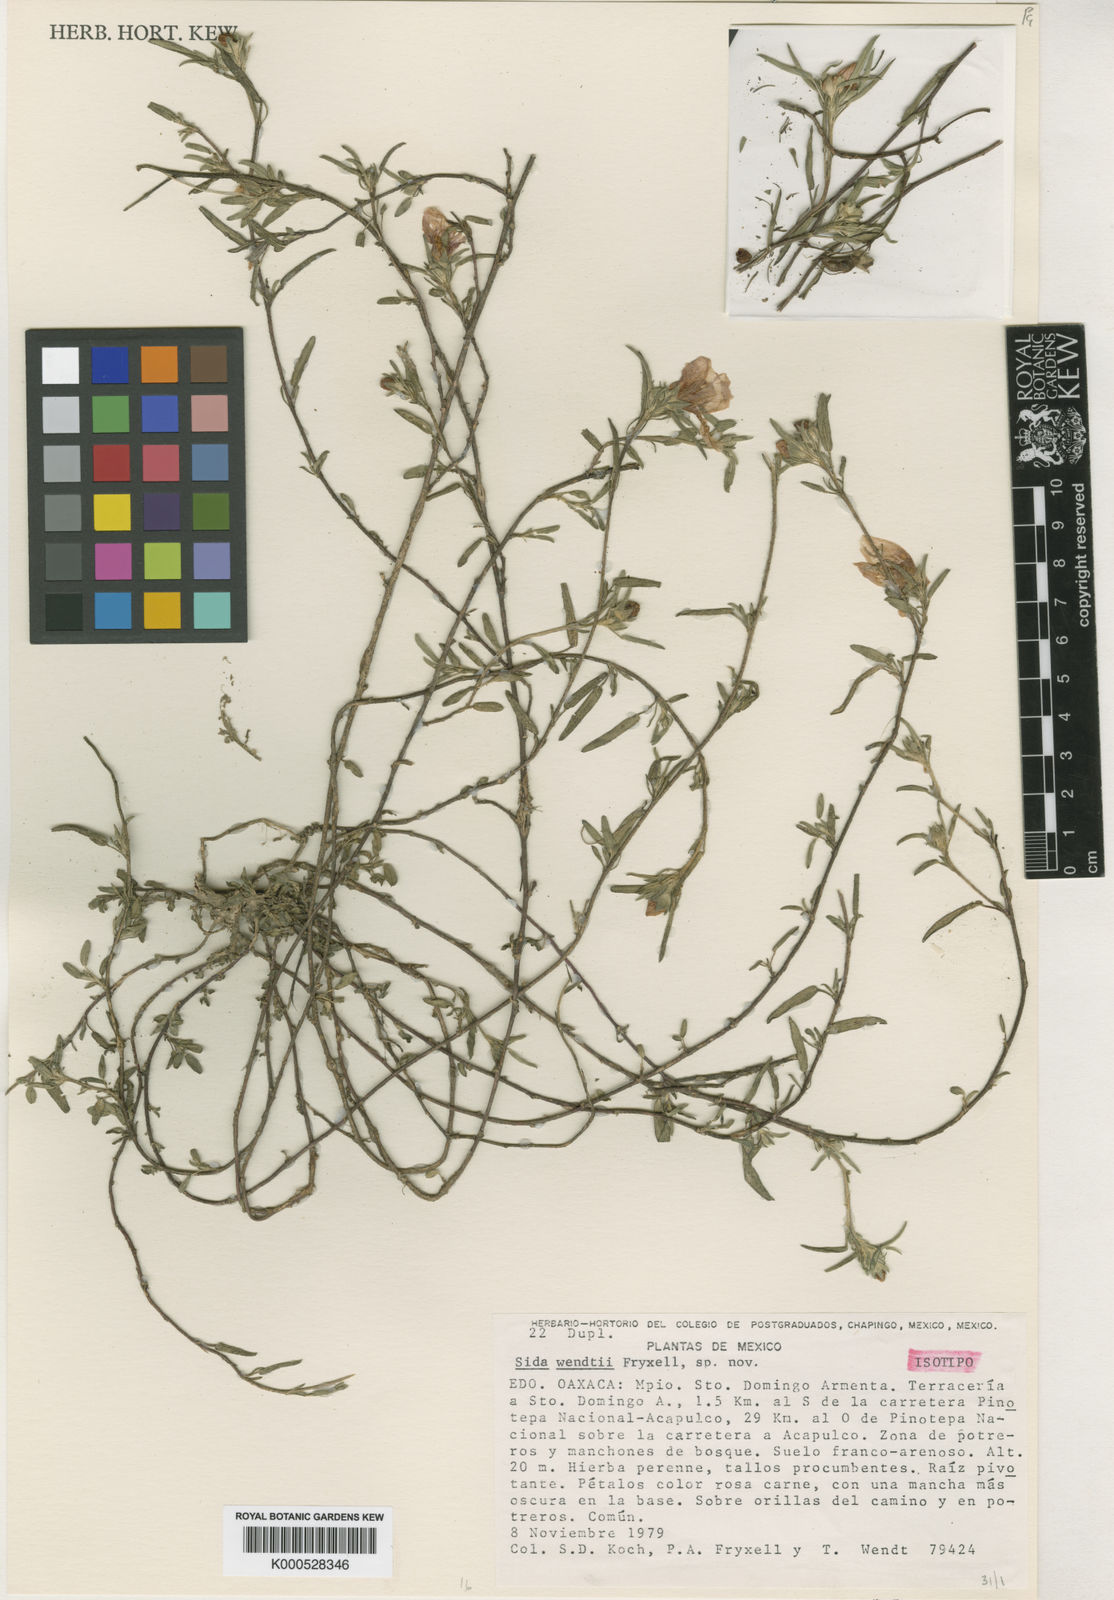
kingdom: Plantae
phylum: Tracheophyta
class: Magnoliopsida
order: Malvales
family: Malvaceae
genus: Sida
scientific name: Sida brachystemon
